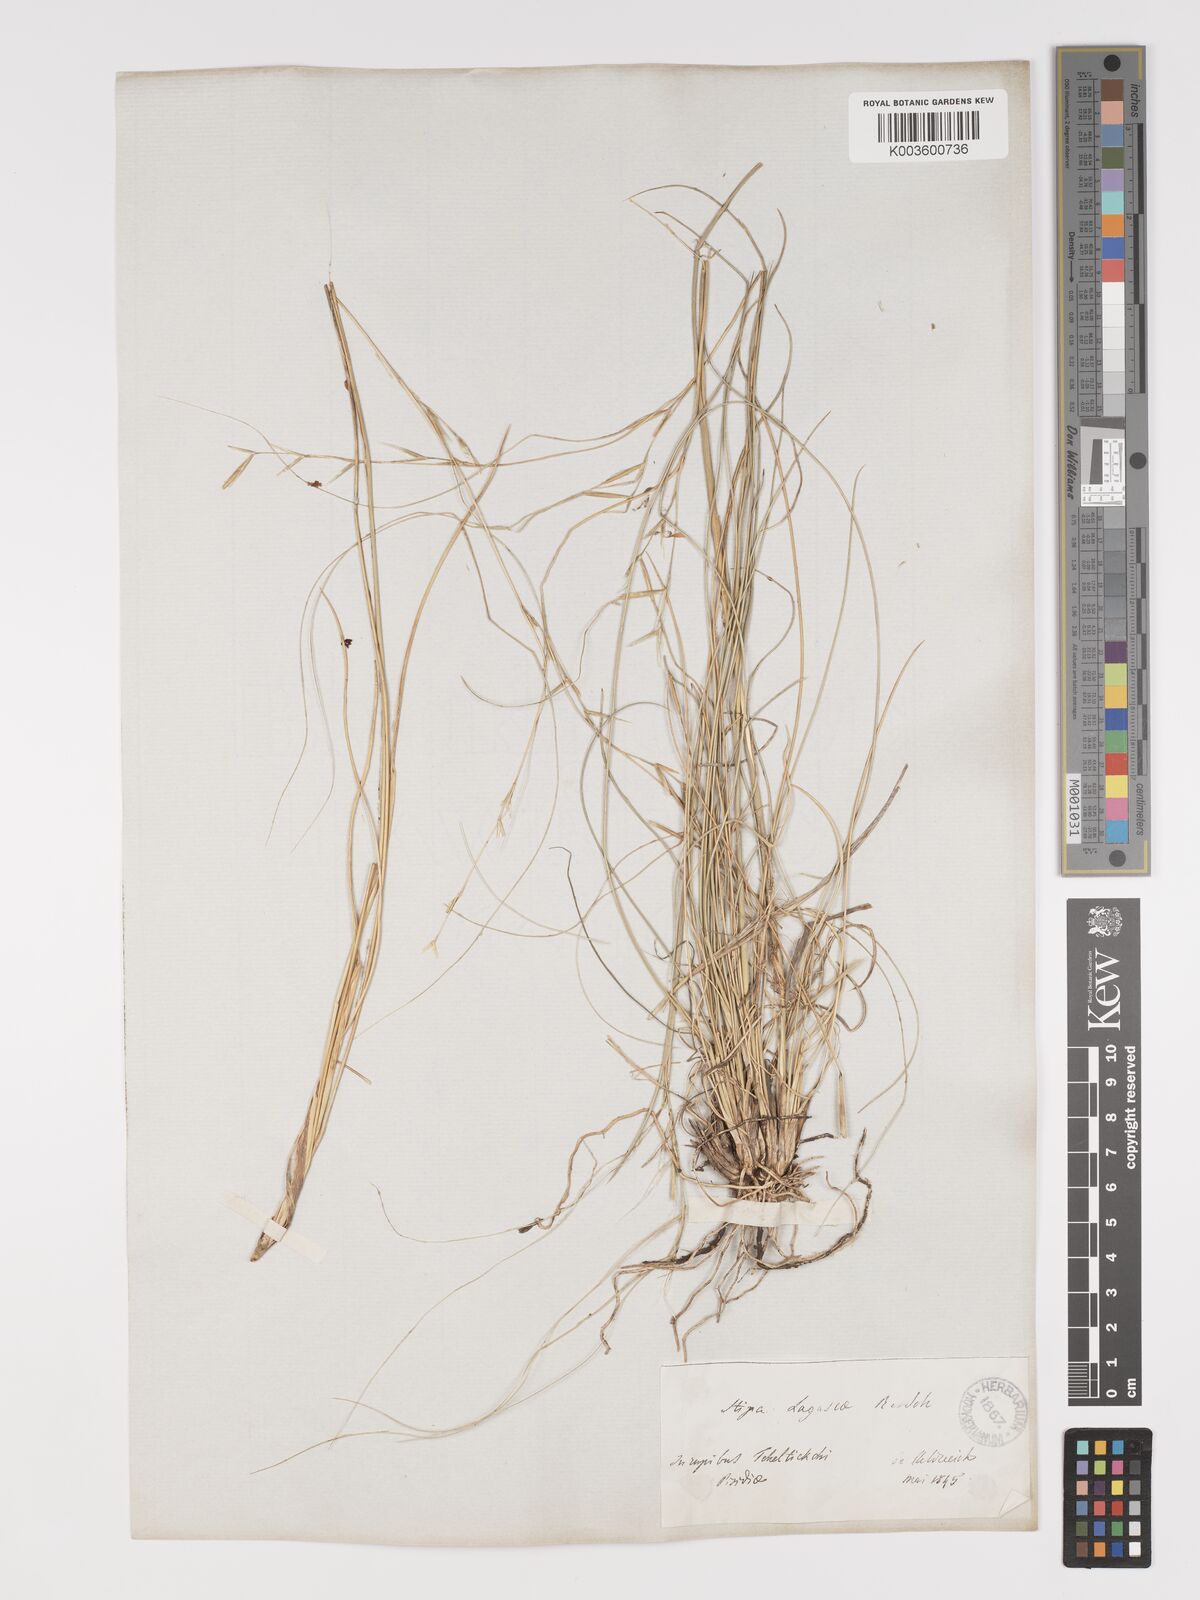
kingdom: Plantae
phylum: Tracheophyta
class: Liliopsida
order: Poales
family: Poaceae
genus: Stipa
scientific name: Stipa lagascae
